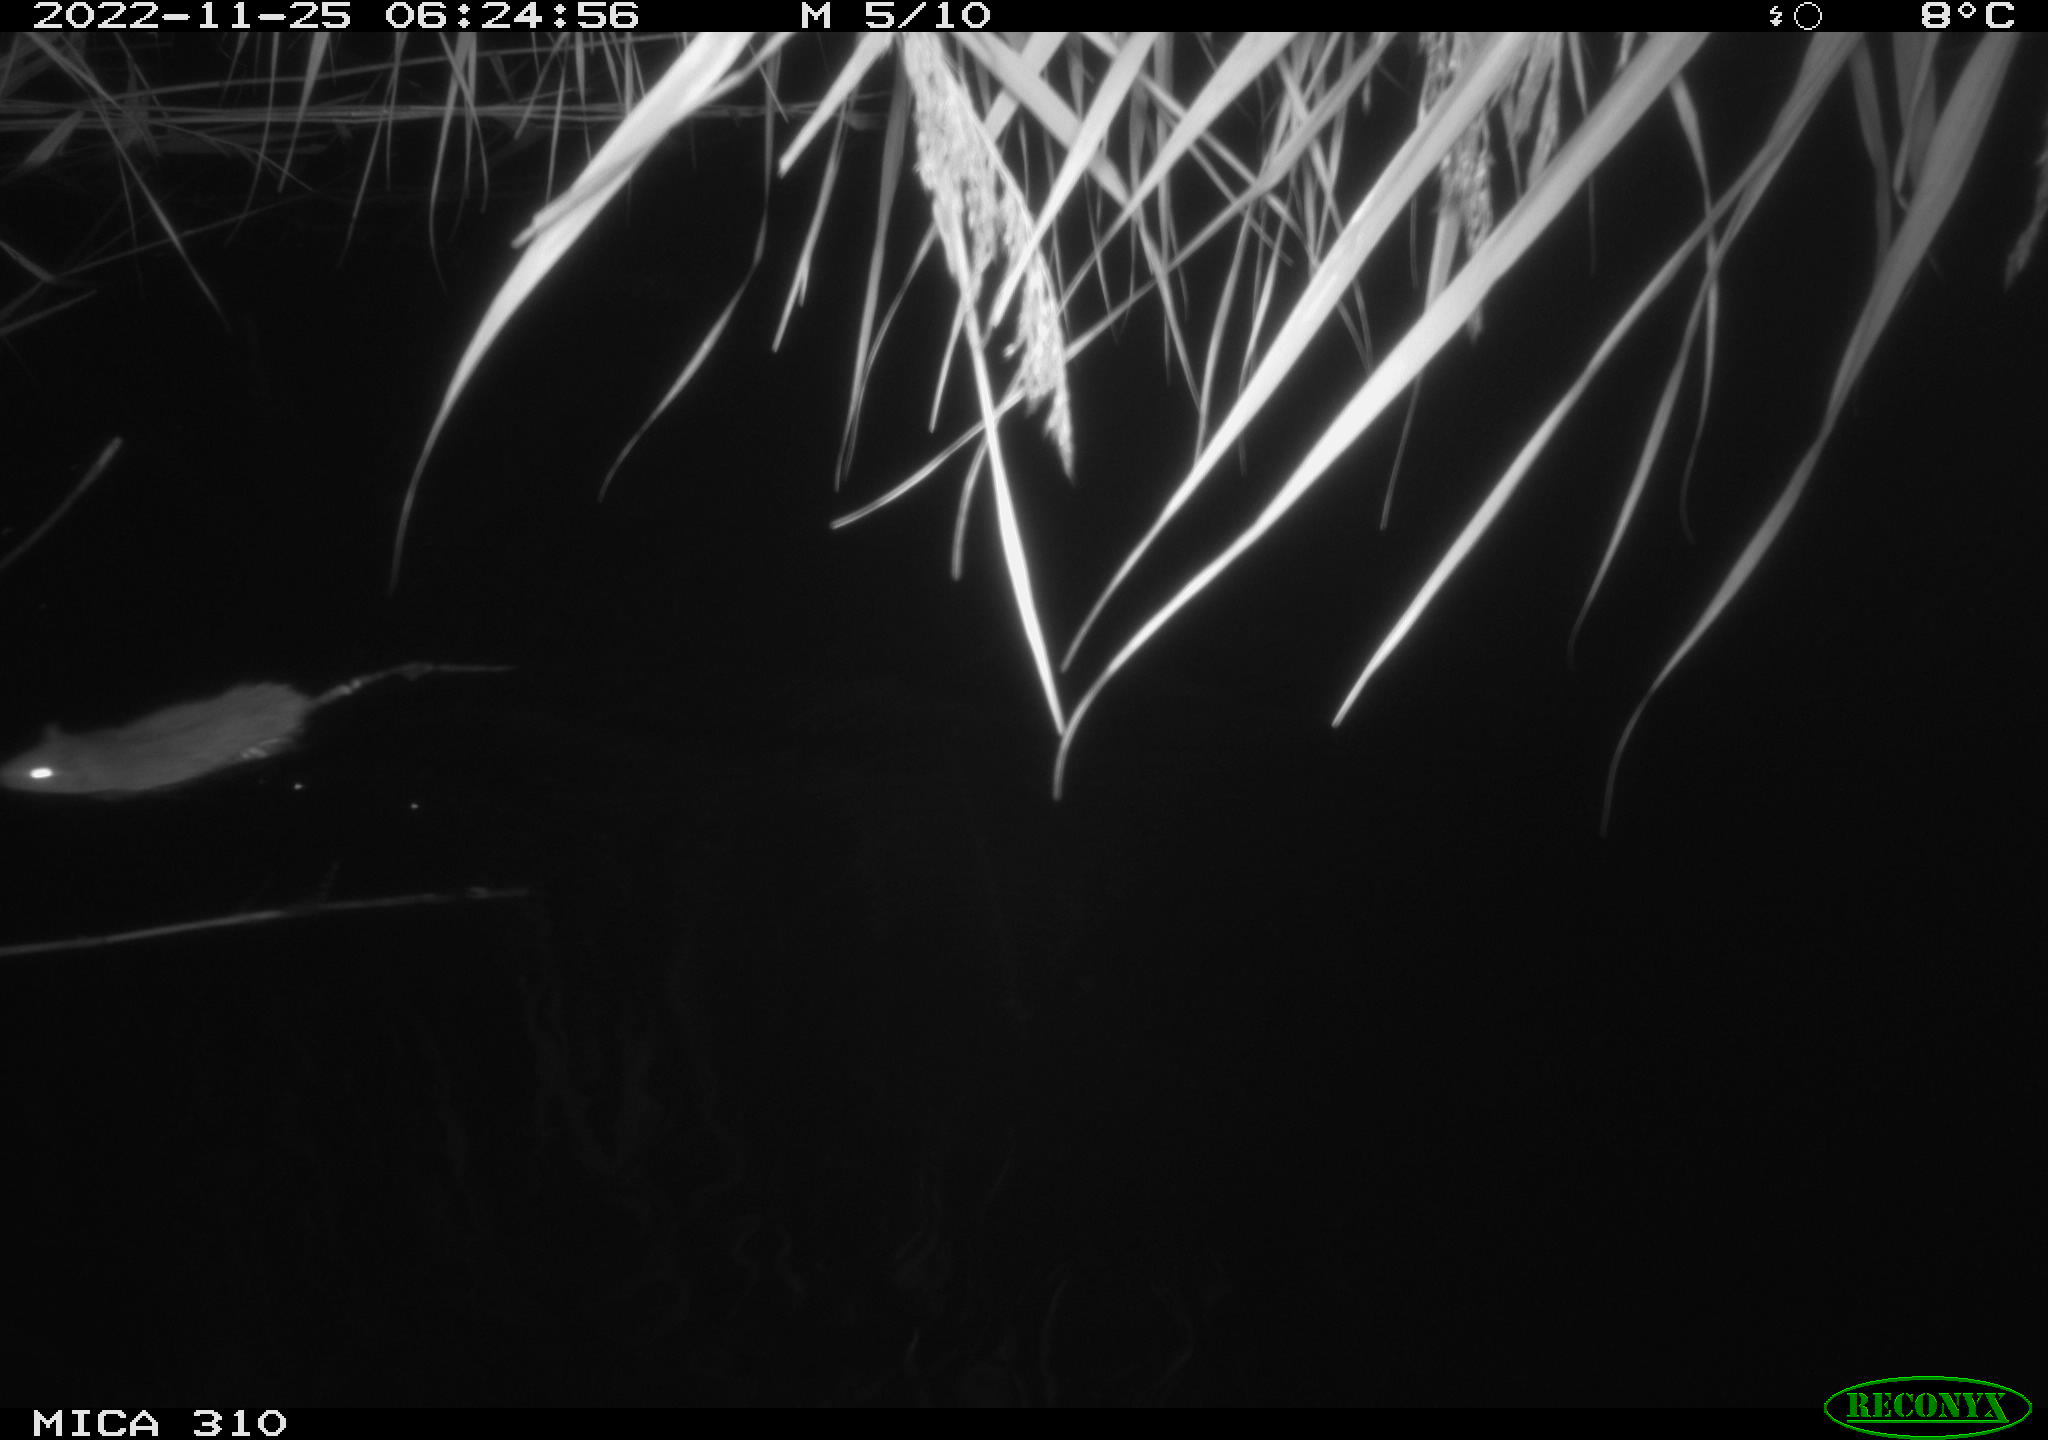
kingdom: Animalia
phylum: Chordata
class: Mammalia
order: Rodentia
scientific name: Rodentia
